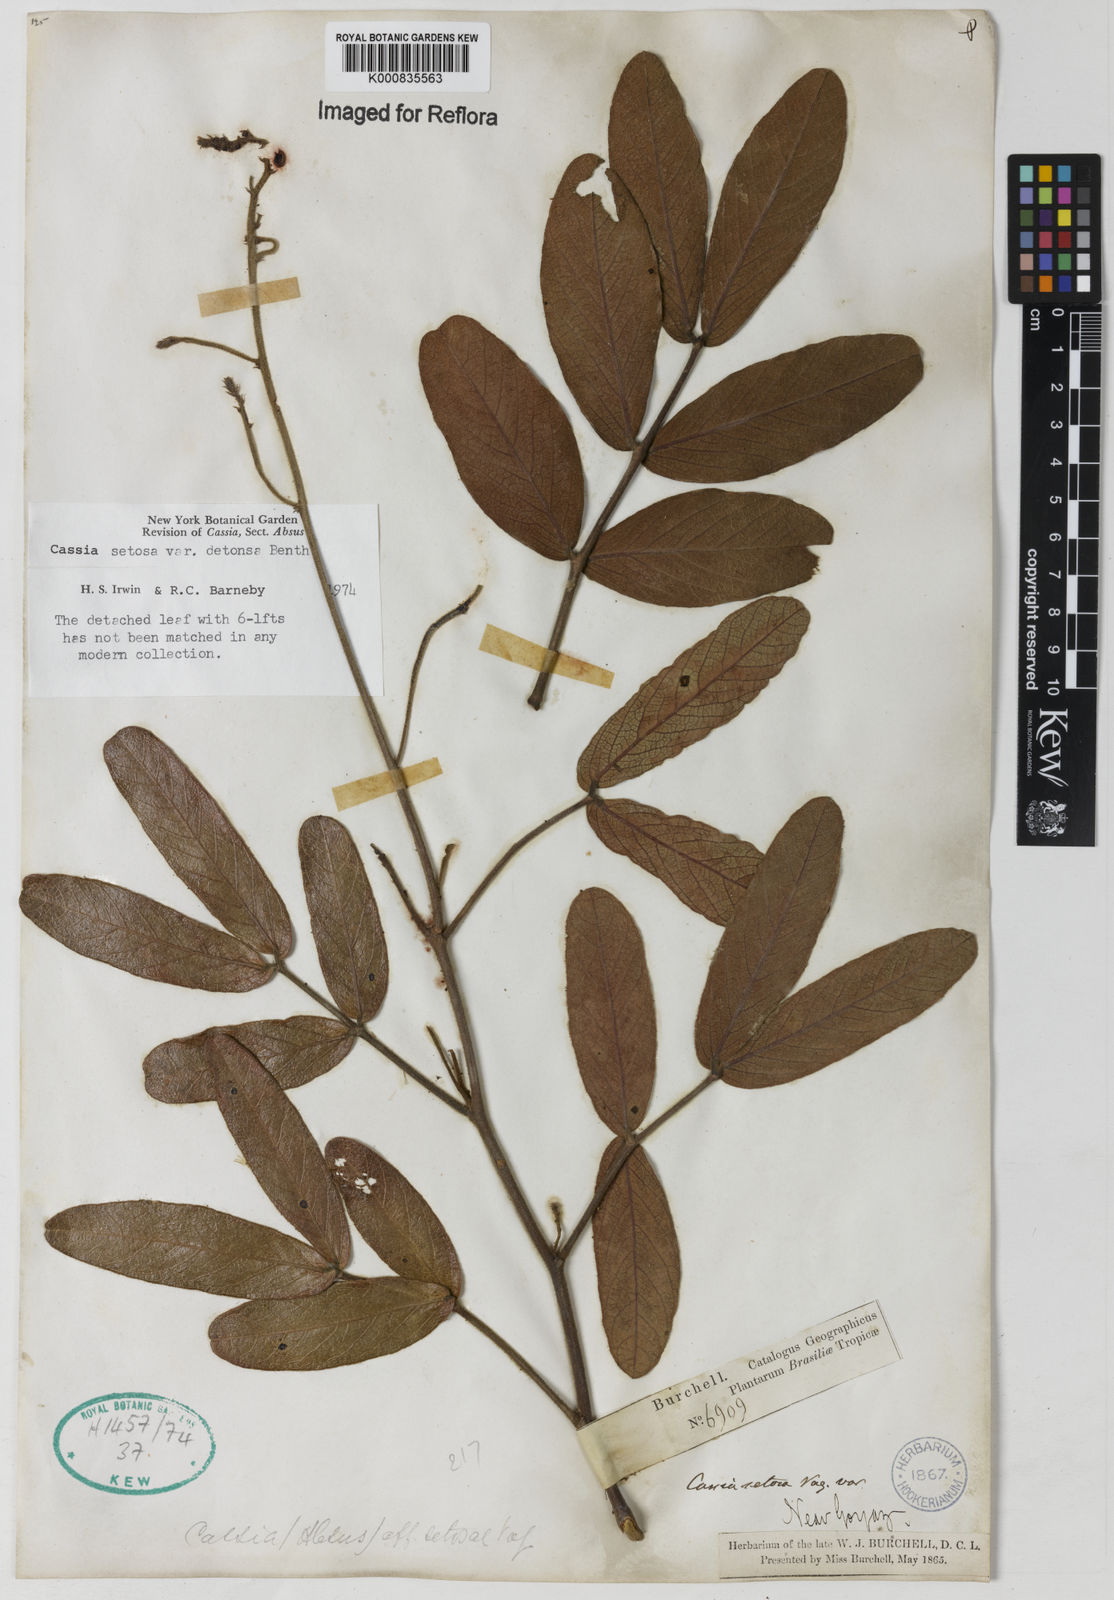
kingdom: Plantae
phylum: Tracheophyta
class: Magnoliopsida
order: Fabales
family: Fabaceae
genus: Chamaecrista
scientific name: Chamaecrista setosa
